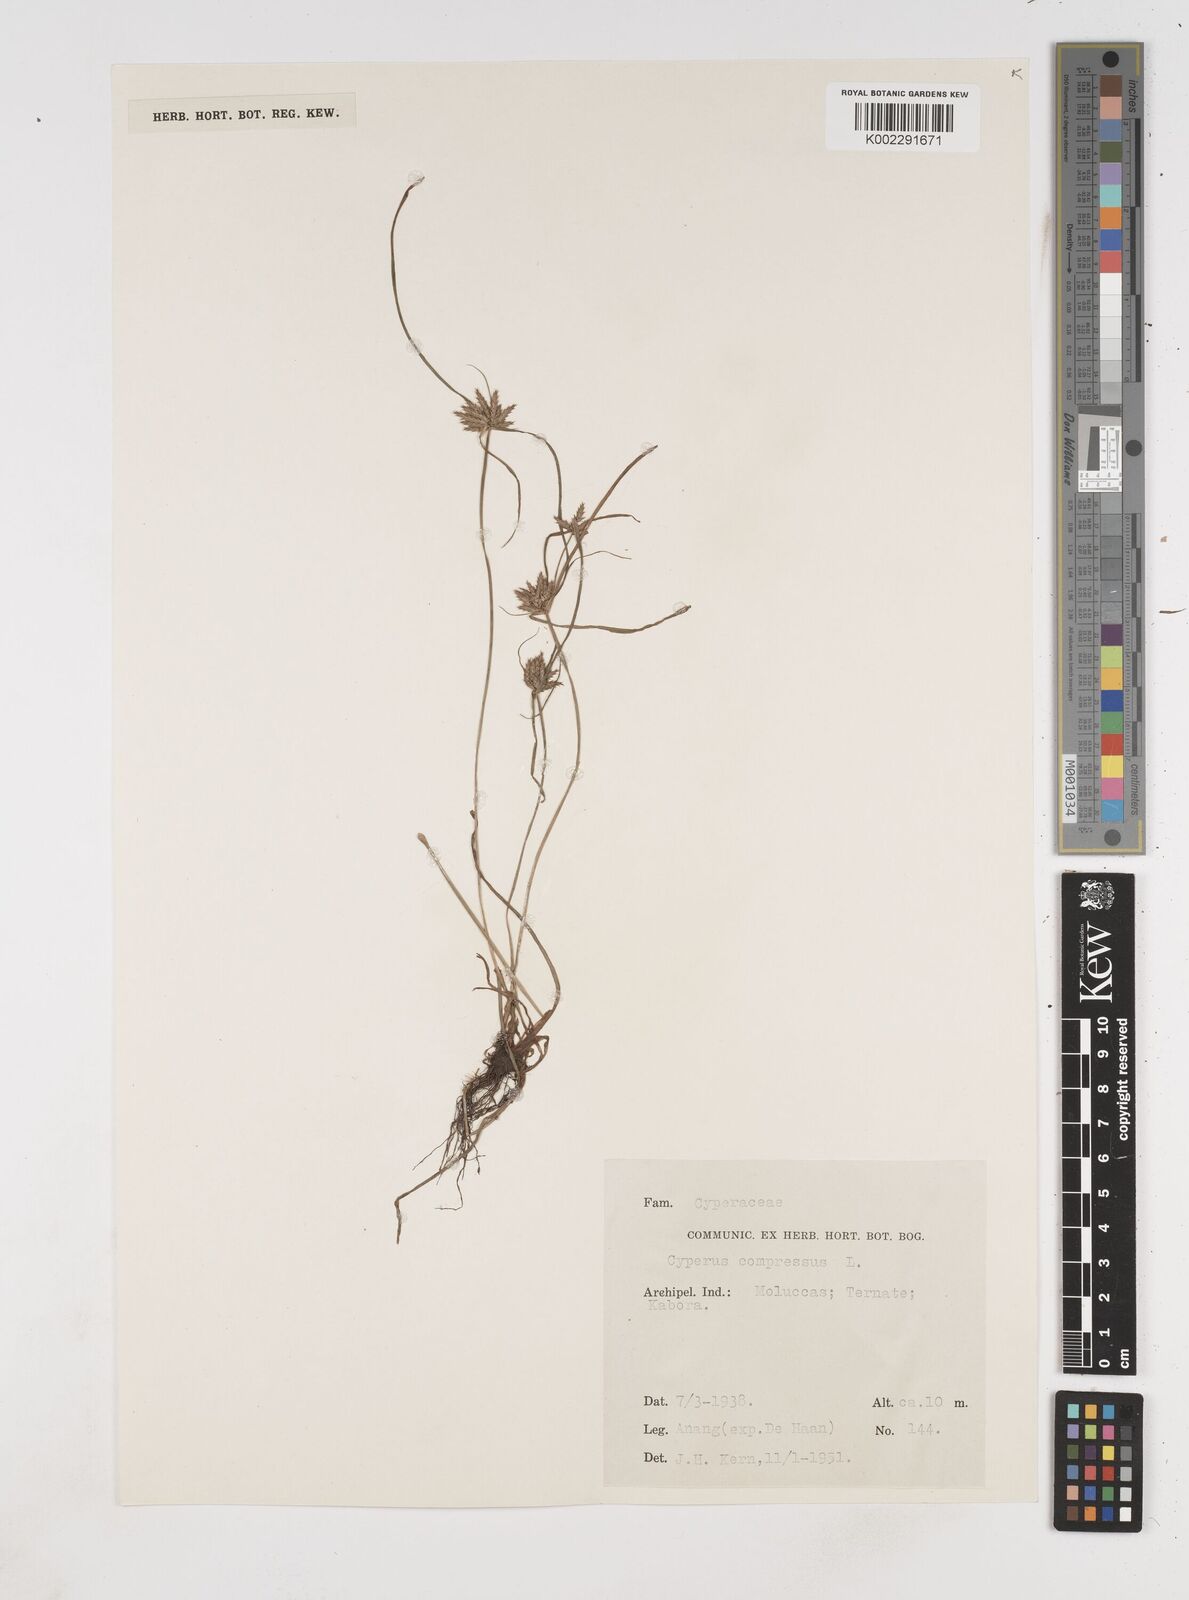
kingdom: Plantae
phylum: Tracheophyta
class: Liliopsida
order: Poales
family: Cyperaceae
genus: Cyperus
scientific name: Cyperus compressus
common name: Poorland flatsedge
